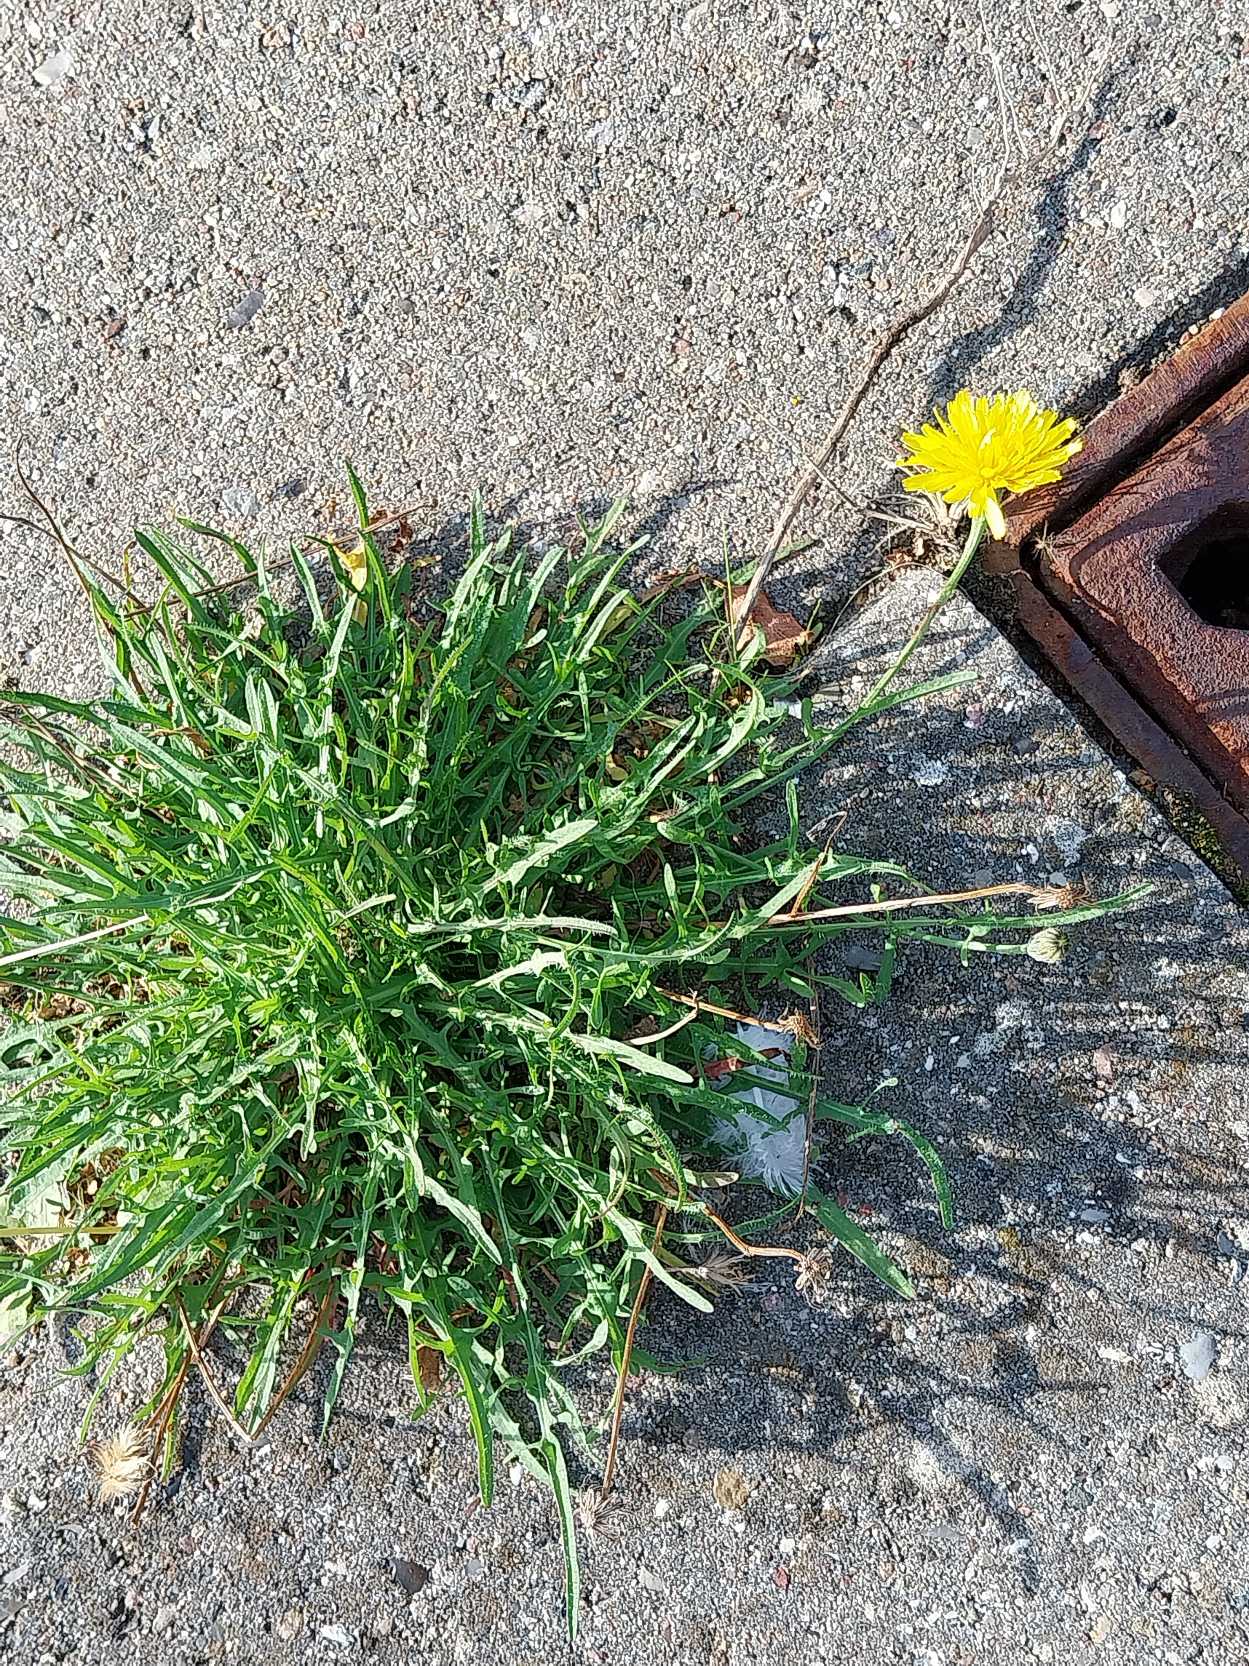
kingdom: Plantae
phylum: Tracheophyta
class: Magnoliopsida
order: Asterales
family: Asteraceae
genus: Scorzoneroides
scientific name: Scorzoneroides autumnalis
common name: Høst-borst
